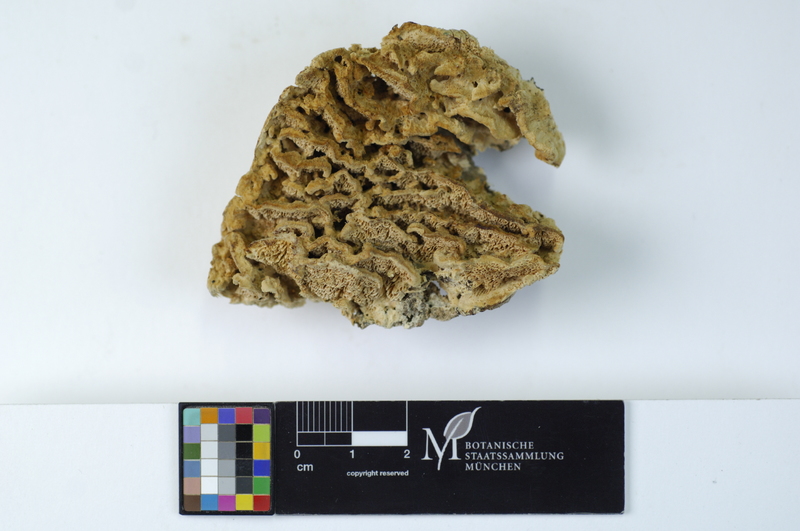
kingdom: Plantae
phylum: Tracheophyta
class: Magnoliopsida
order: Fagales
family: Fagaceae
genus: Fagus
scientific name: Fagus sylvatica
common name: Beech
